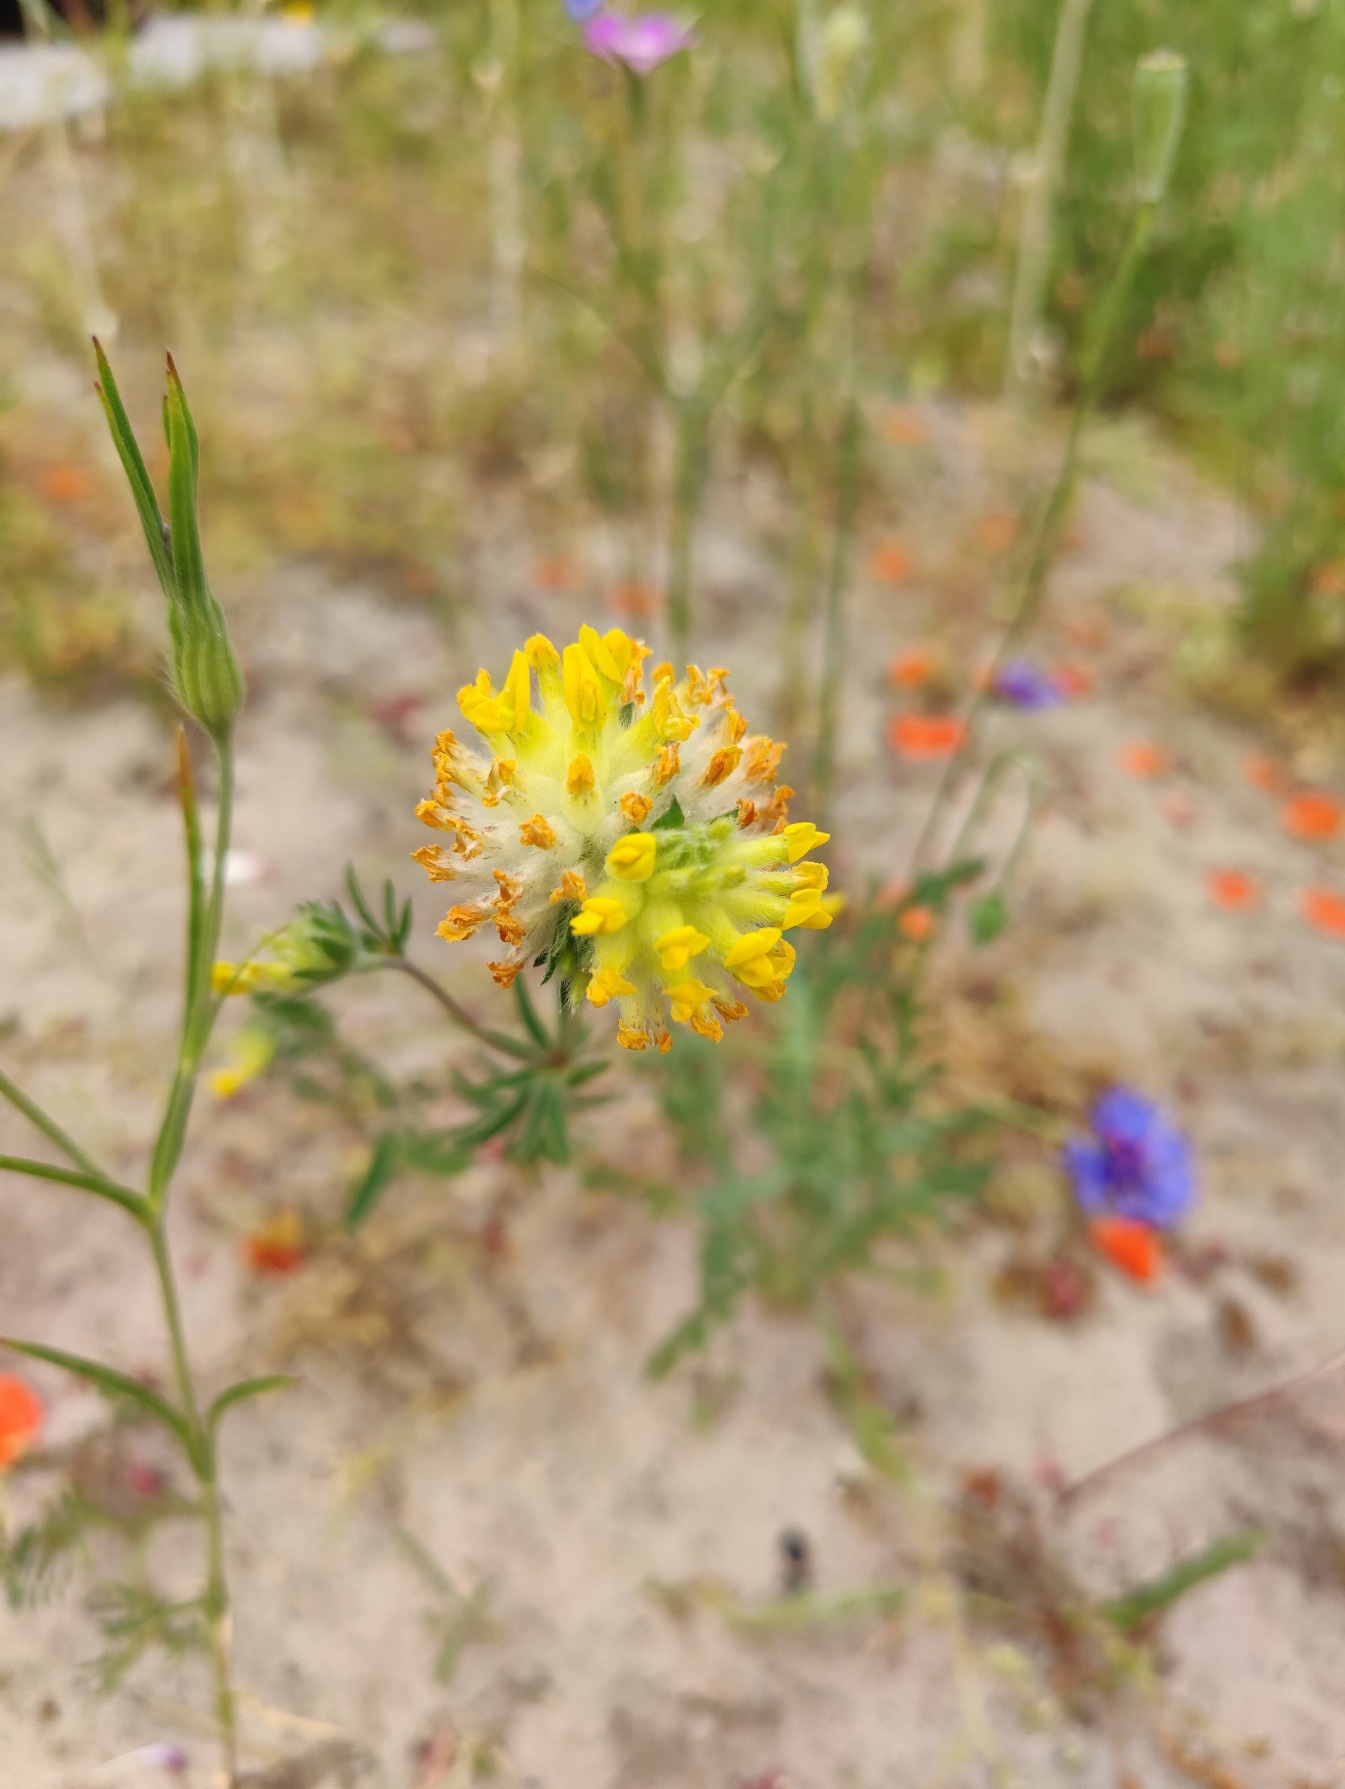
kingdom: Plantae
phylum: Tracheophyta
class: Magnoliopsida
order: Fabales
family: Fabaceae
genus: Anthyllis
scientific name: Anthyllis vulneraria
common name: Rundbælg
